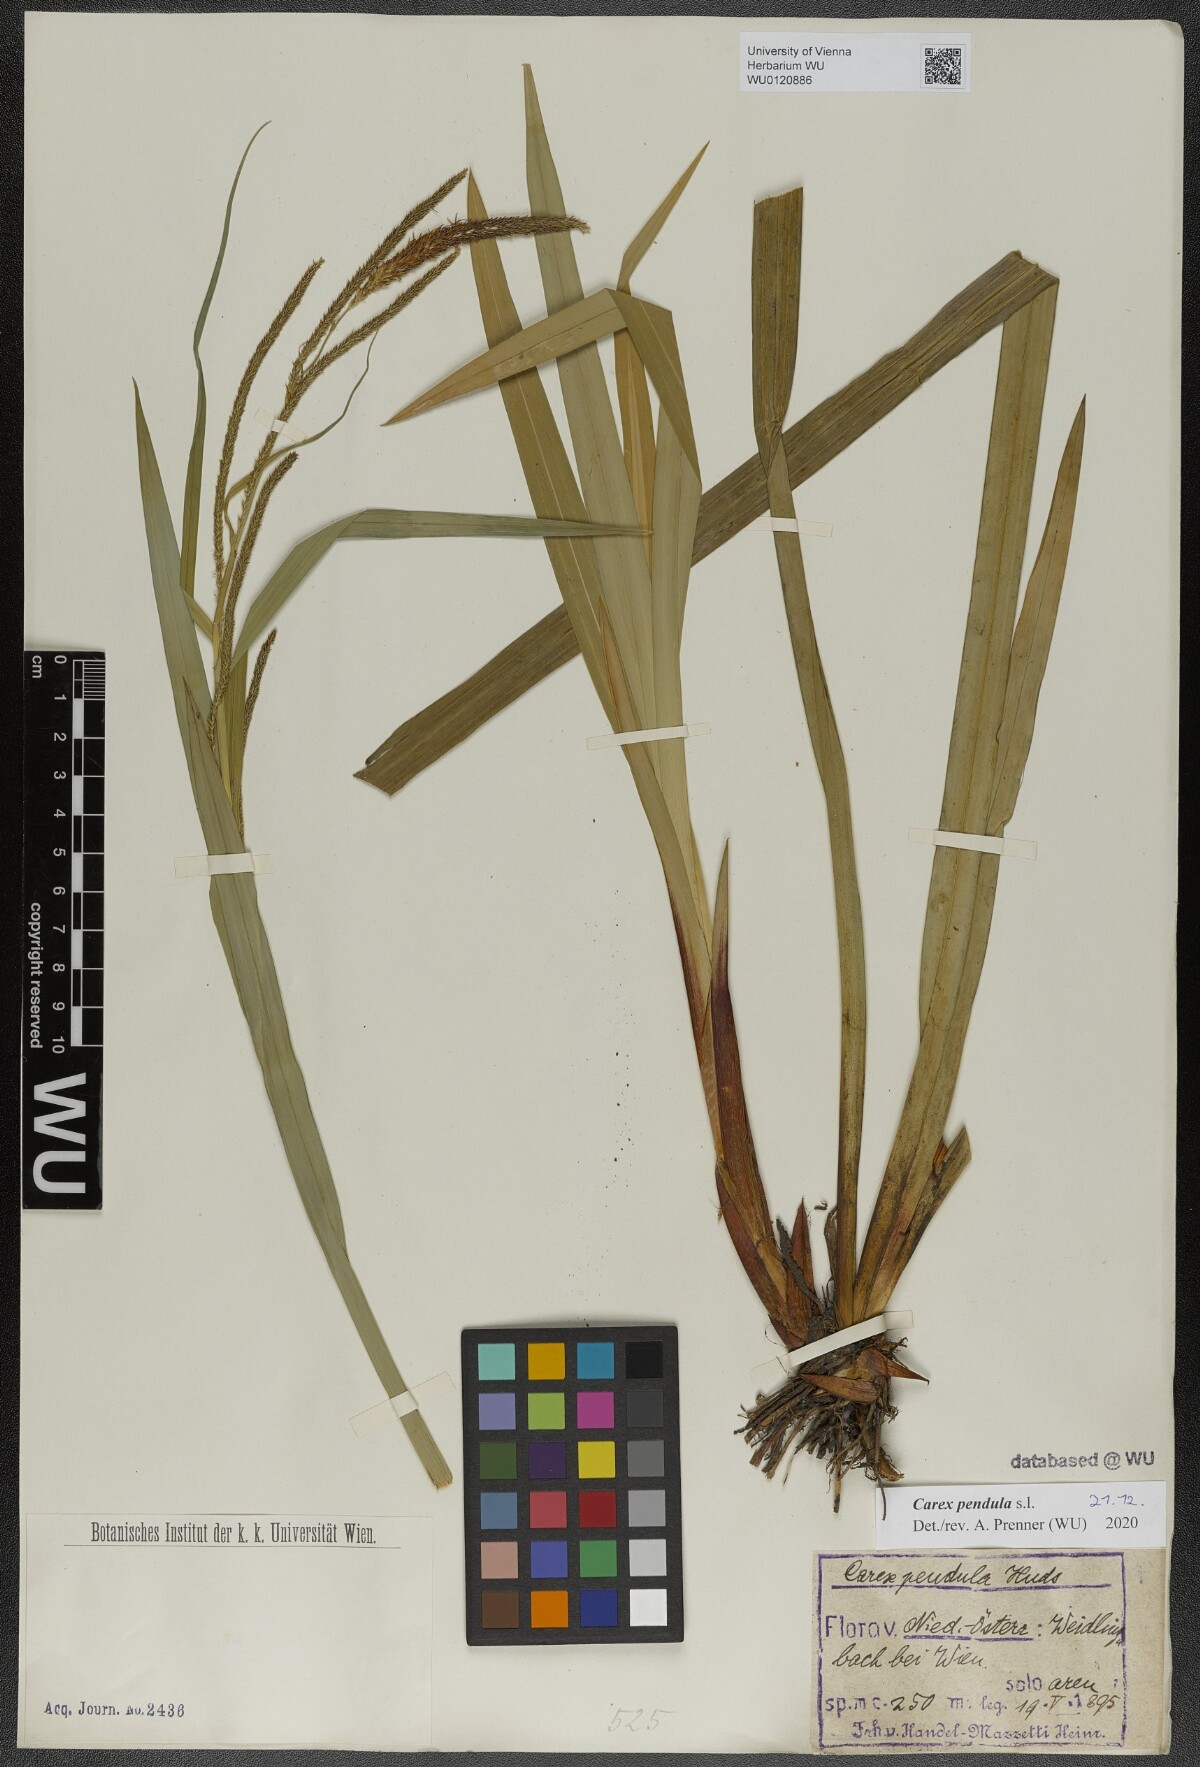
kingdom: Plantae
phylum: Tracheophyta
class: Liliopsida
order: Poales
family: Cyperaceae
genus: Carex
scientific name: Carex pendula
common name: Pendulous sedge
